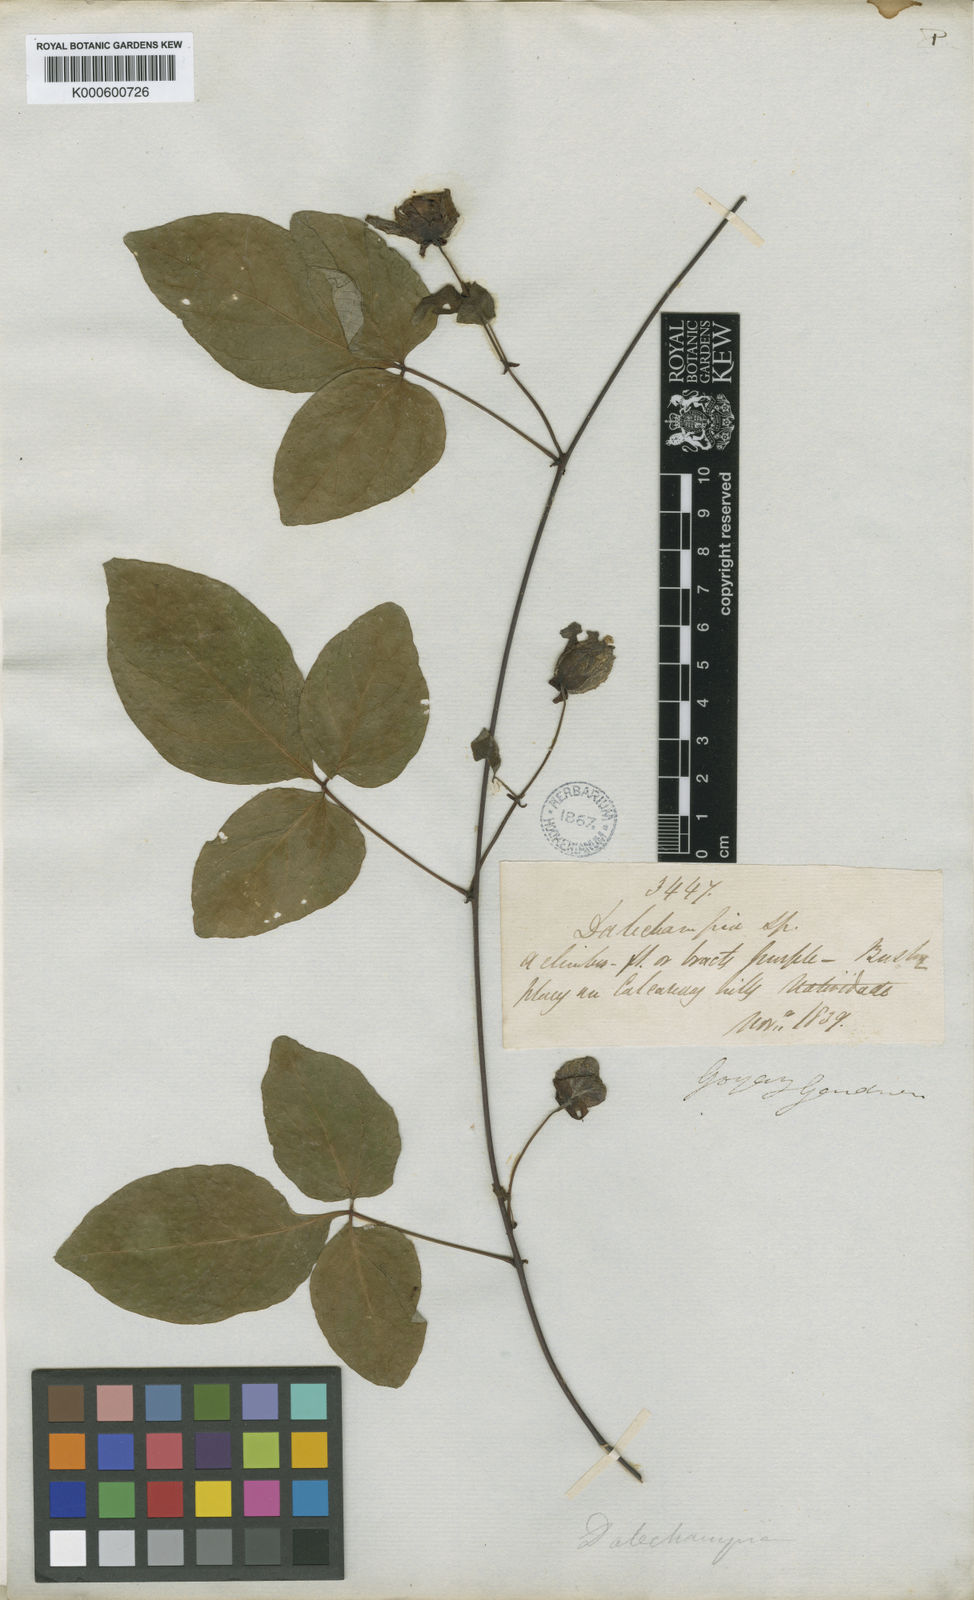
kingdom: Plantae
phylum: Tracheophyta
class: Magnoliopsida
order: Malpighiales
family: Euphorbiaceae
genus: Dalechampia
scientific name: Dalechampia
